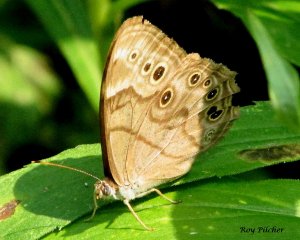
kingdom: Animalia
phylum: Arthropoda
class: Insecta
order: Lepidoptera
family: Nymphalidae
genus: Lethe
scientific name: Lethe anthedon
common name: Northern Pearly-Eye
